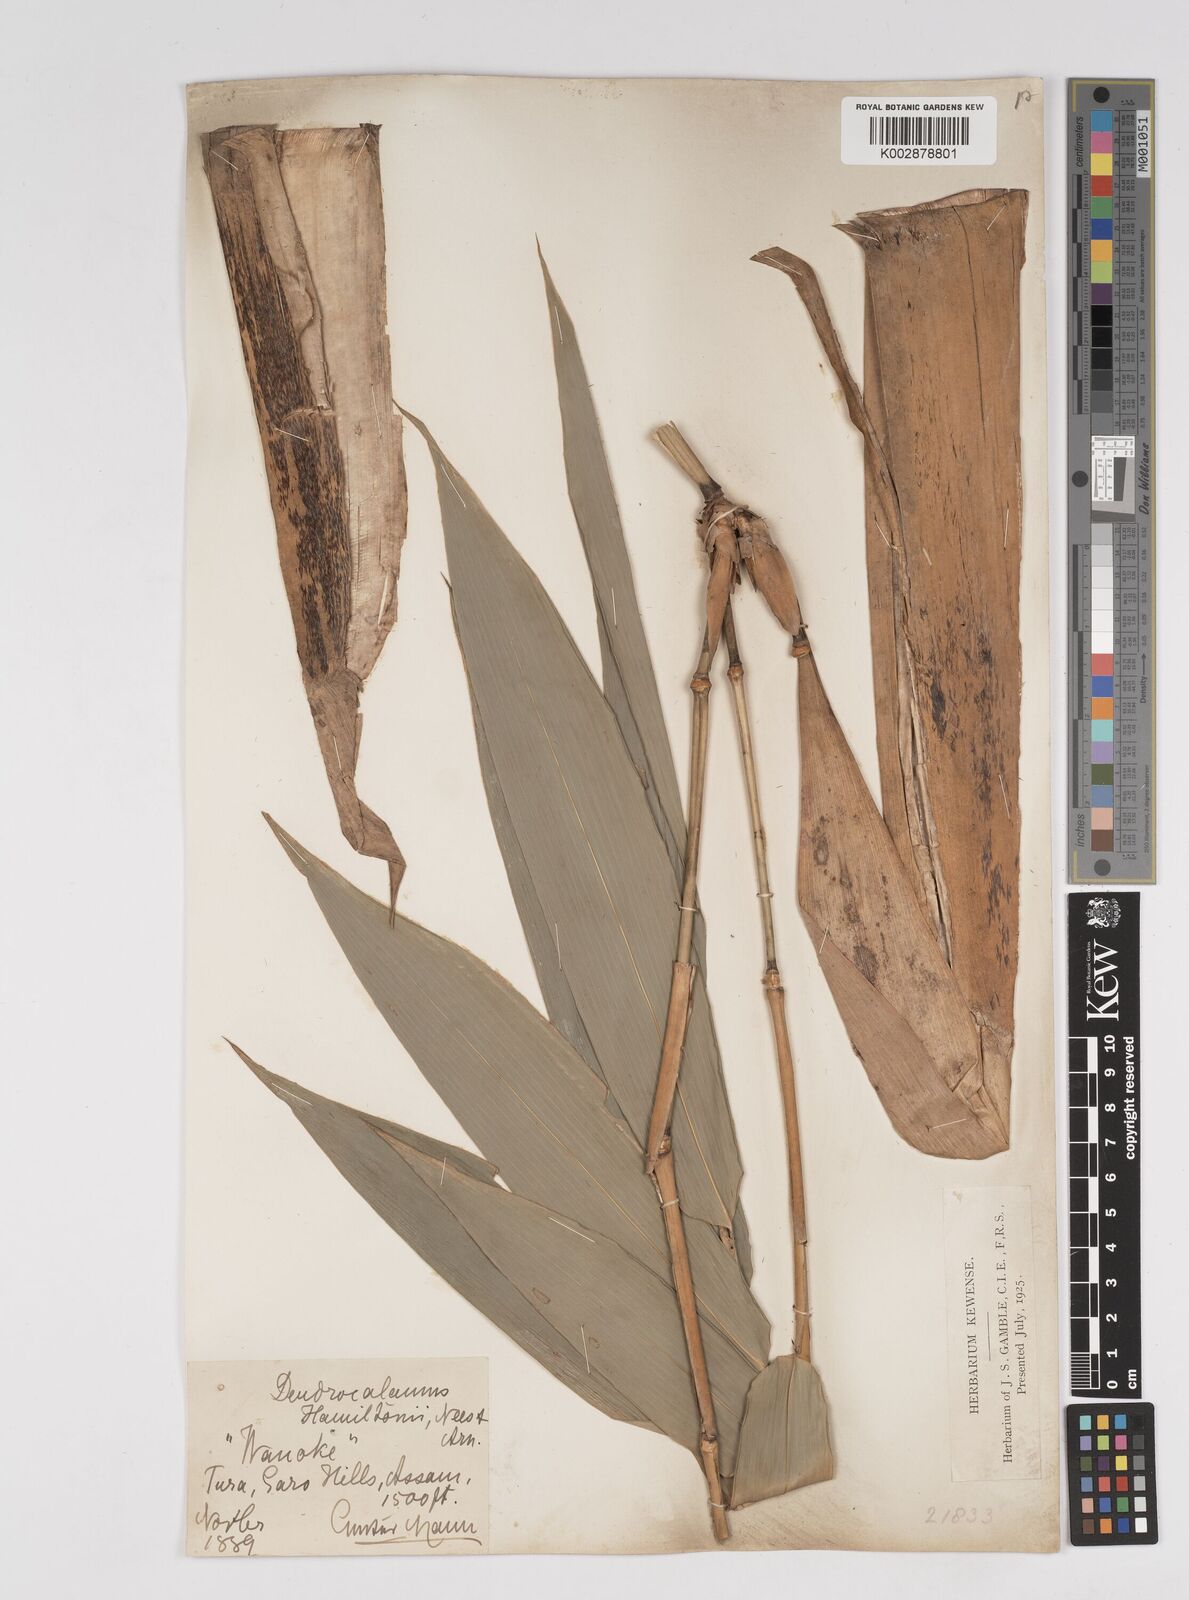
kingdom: Plantae
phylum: Tracheophyta
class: Liliopsida
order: Poales
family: Poaceae
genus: Dendrocalamus
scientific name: Dendrocalamus hamiltonii
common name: Tama bamboo
